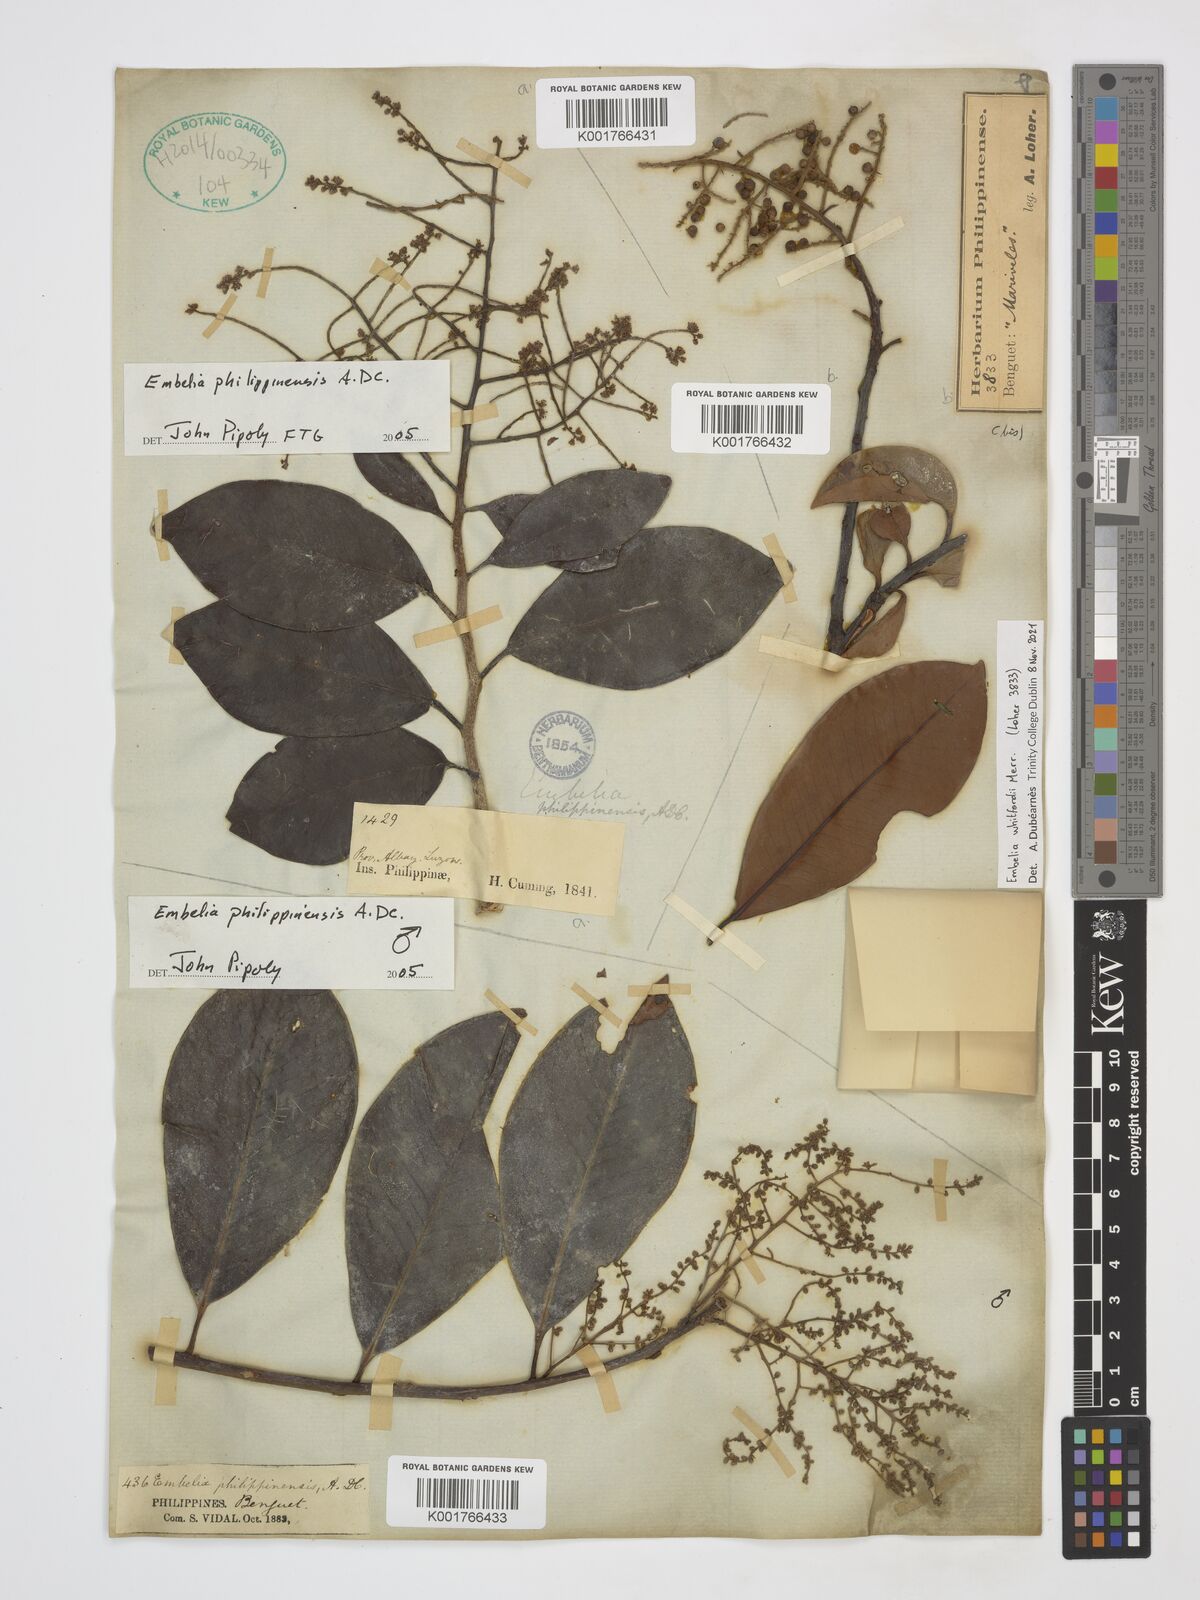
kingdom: Plantae
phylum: Tracheophyta
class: Magnoliopsida
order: Ericales
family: Primulaceae
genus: Embelia
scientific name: Embelia philippinensis
